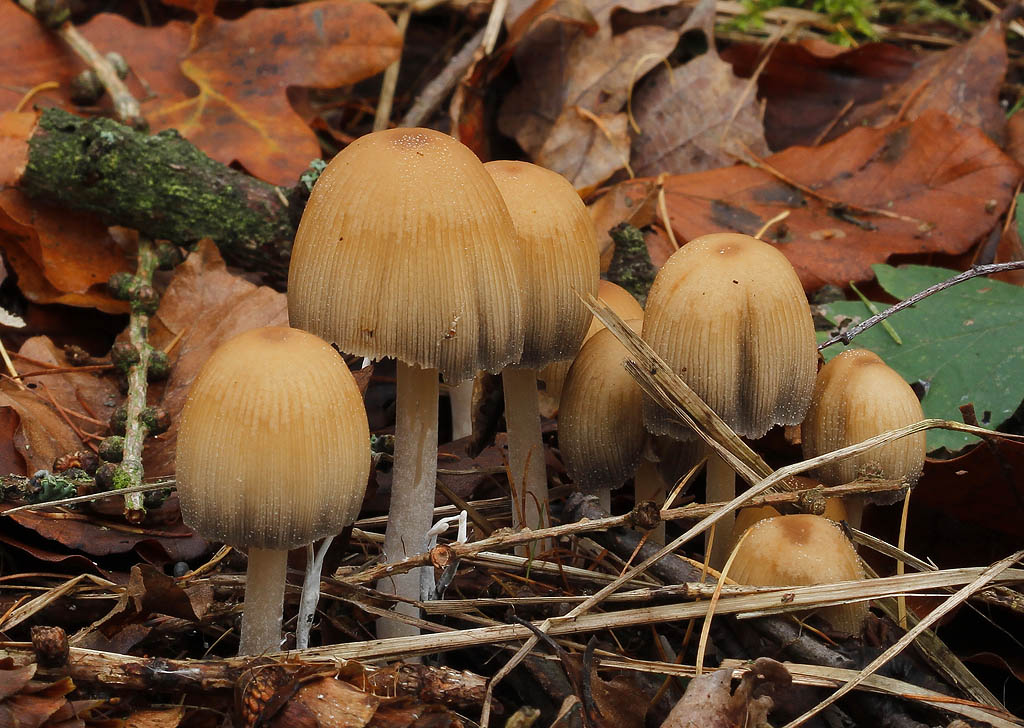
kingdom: Fungi
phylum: Basidiomycota
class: Agaricomycetes
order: Agaricales
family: Psathyrellaceae
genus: Coprinellus
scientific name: Coprinellus micaceus
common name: glimmer-blækhat
